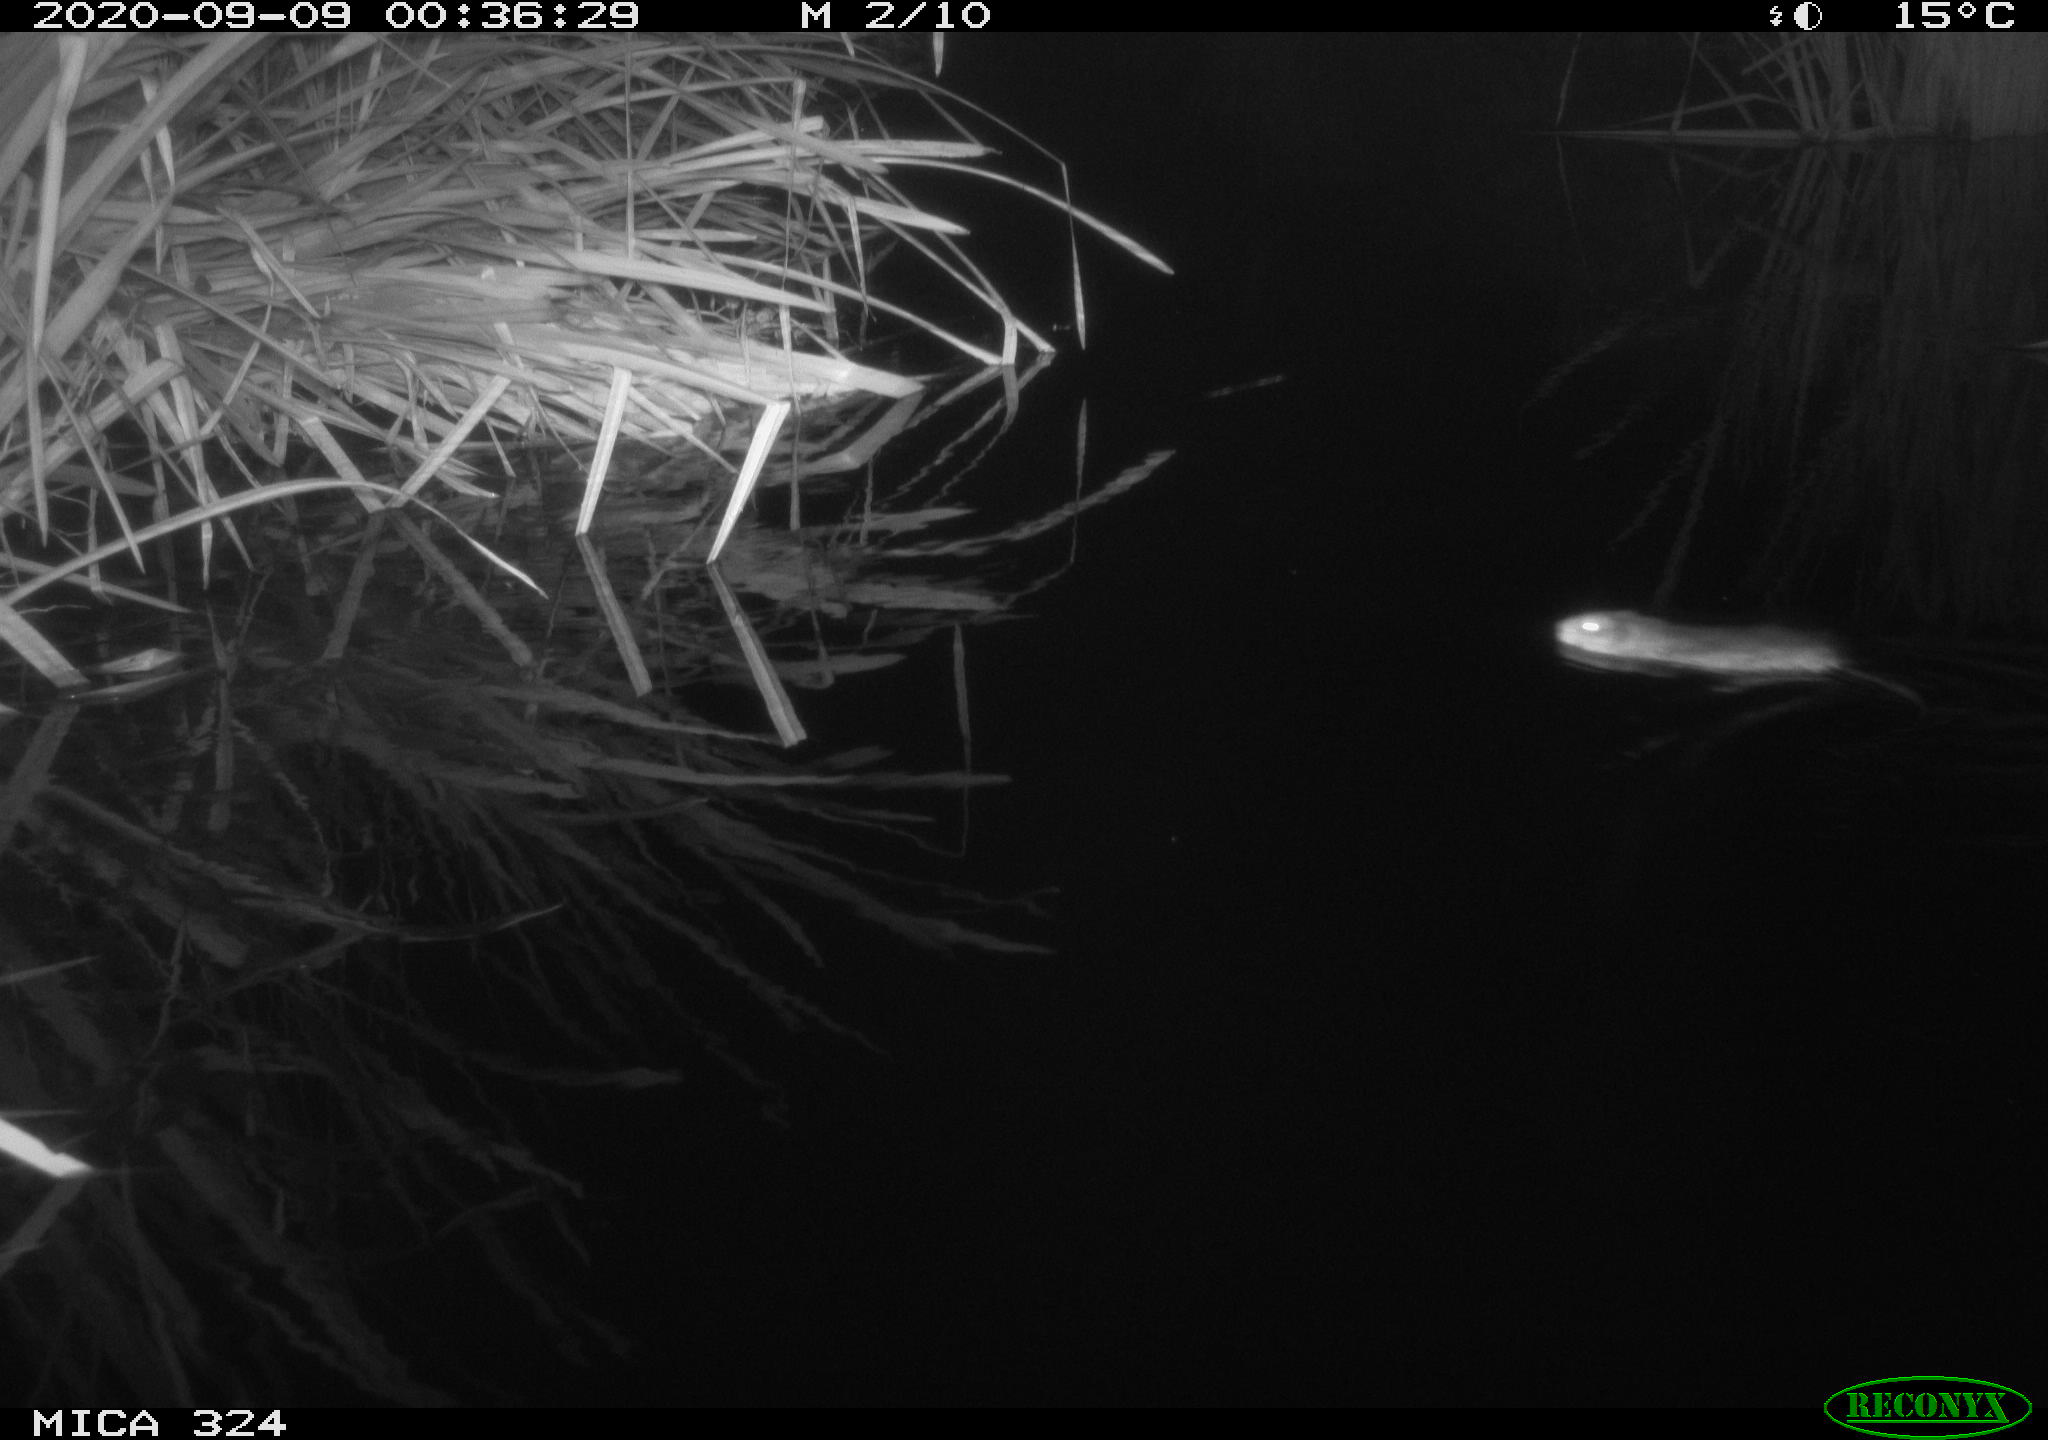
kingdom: Animalia
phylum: Chordata
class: Mammalia
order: Rodentia
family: Cricetidae
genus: Ondatra
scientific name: Ondatra zibethicus
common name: Muskrat
